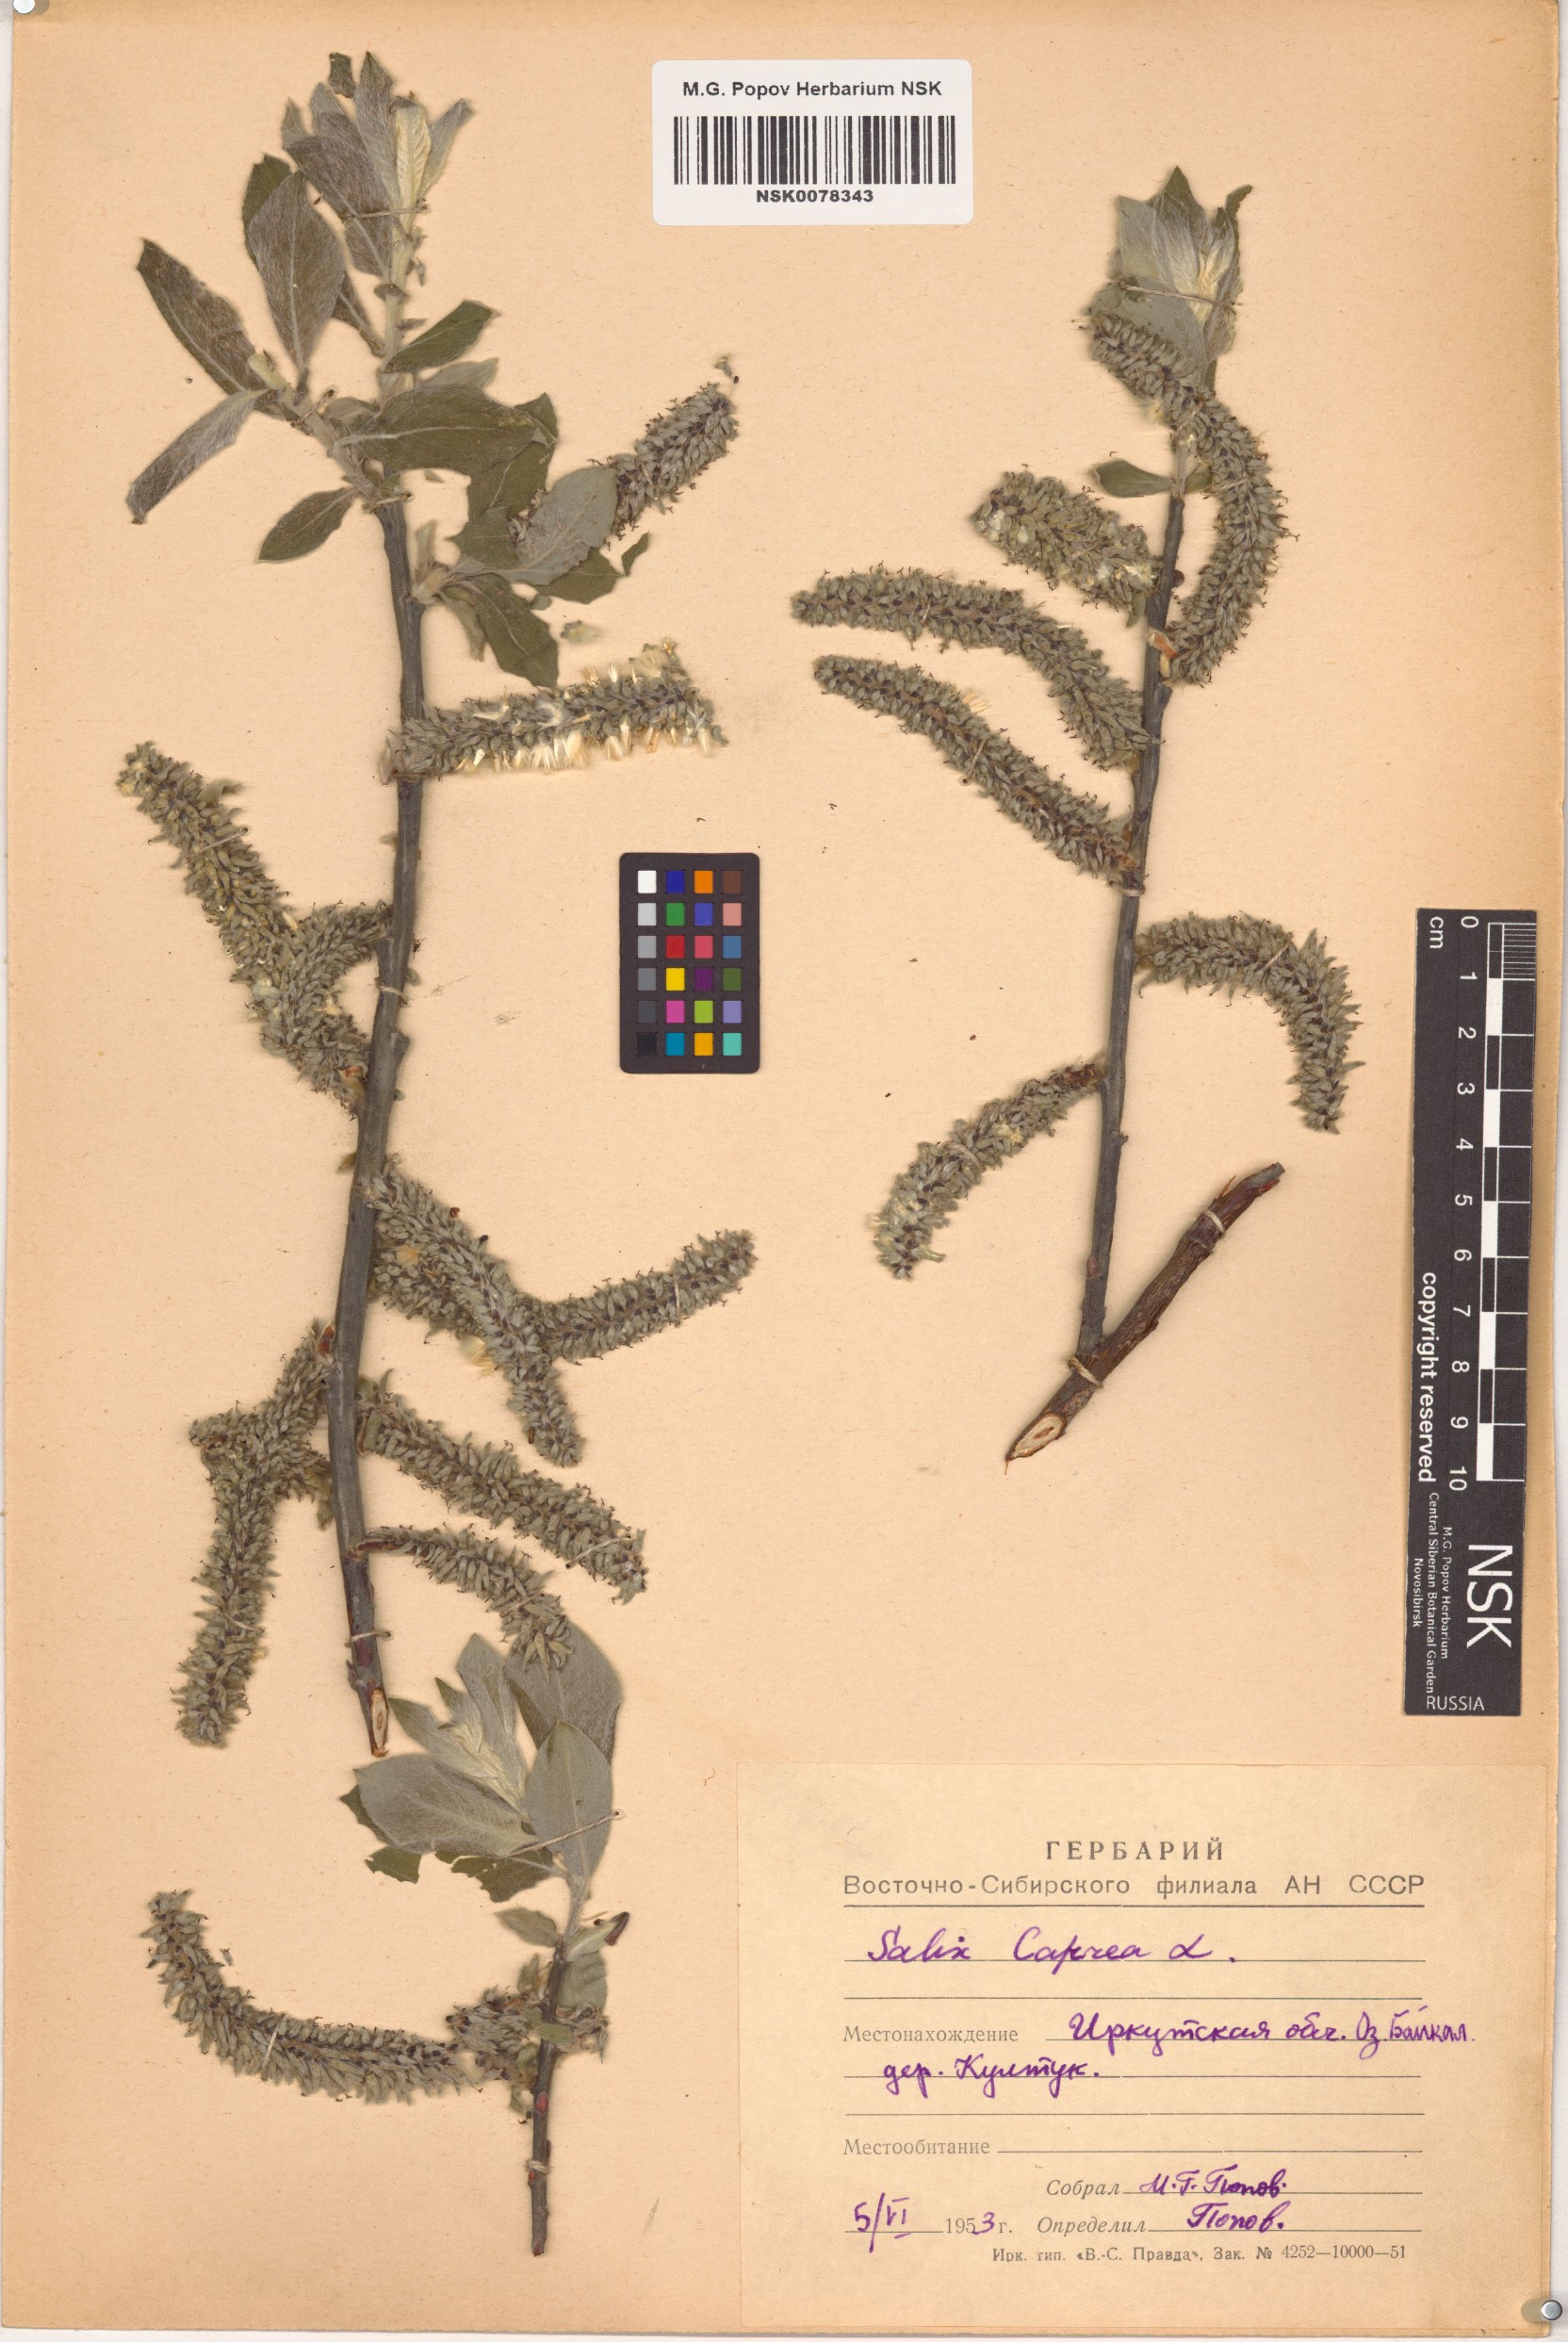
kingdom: Plantae
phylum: Tracheophyta
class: Magnoliopsida
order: Malpighiales
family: Salicaceae
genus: Salix
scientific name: Salix caprea
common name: Goat willow
